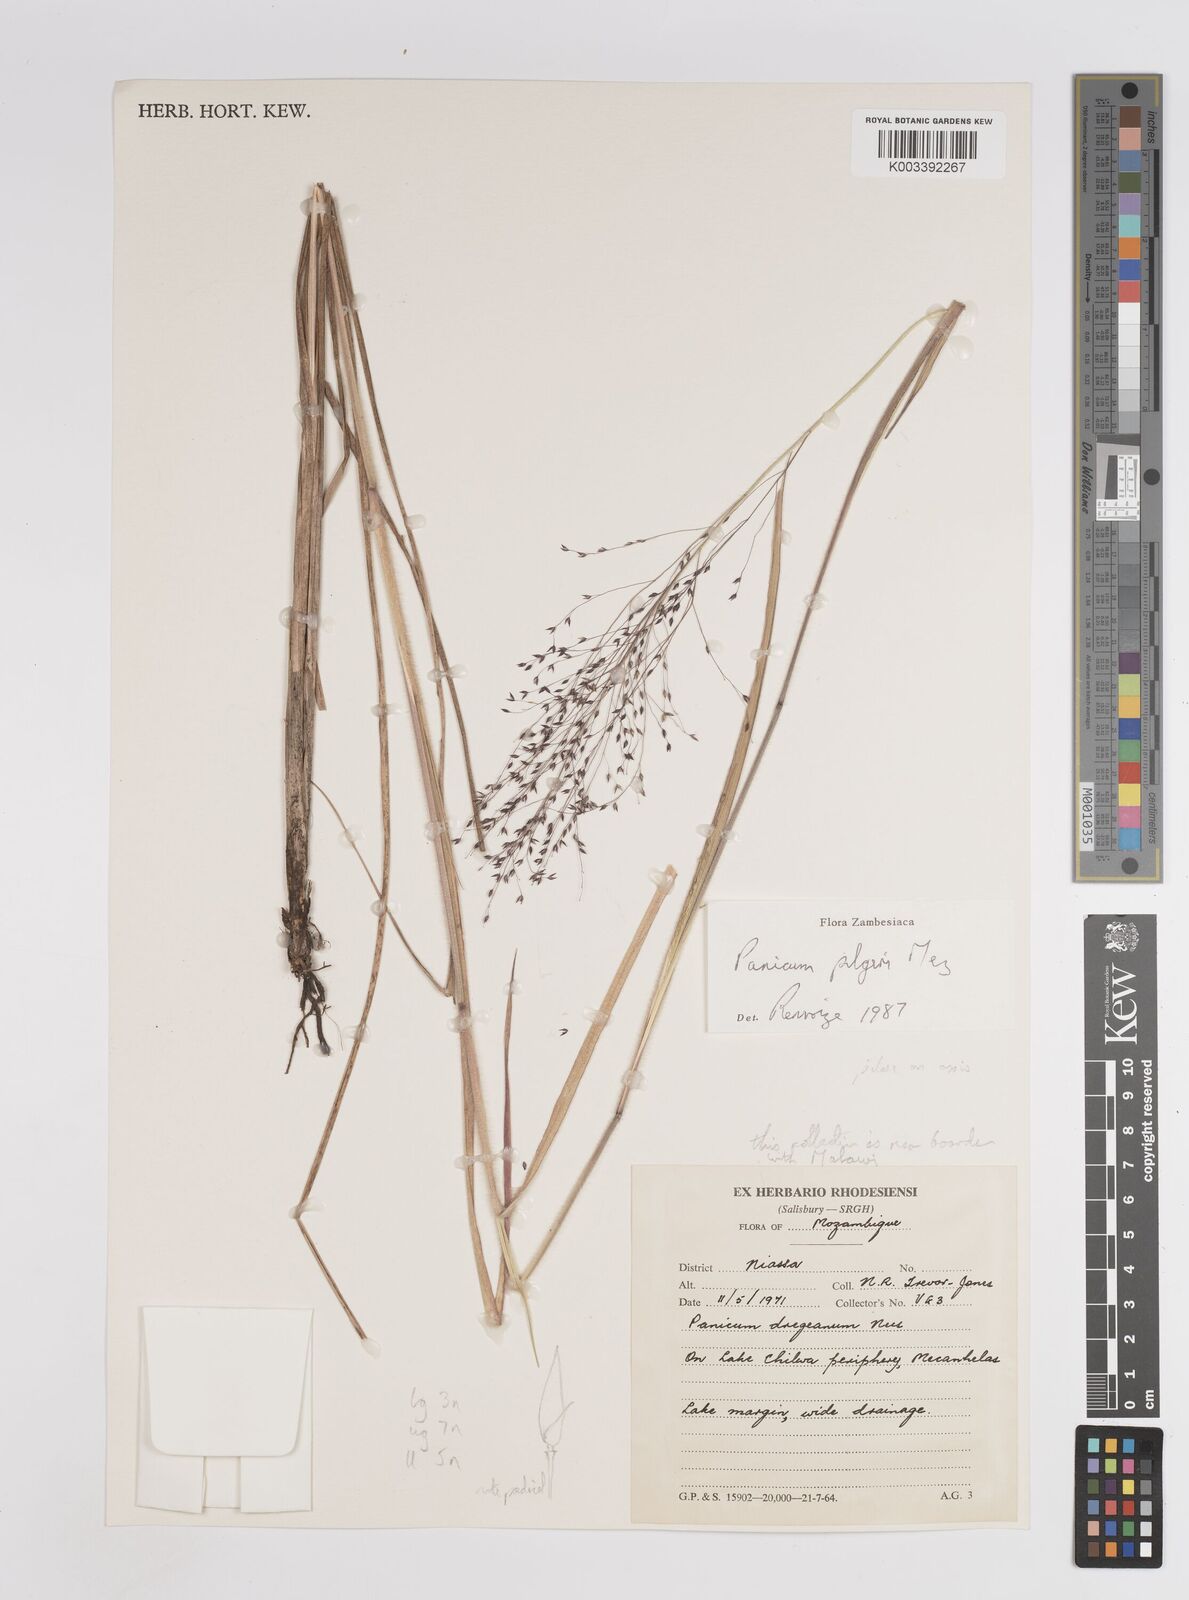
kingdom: Plantae
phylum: Tracheophyta
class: Liliopsida
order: Poales
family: Poaceae
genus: Panicum
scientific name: Panicum pilgeri
